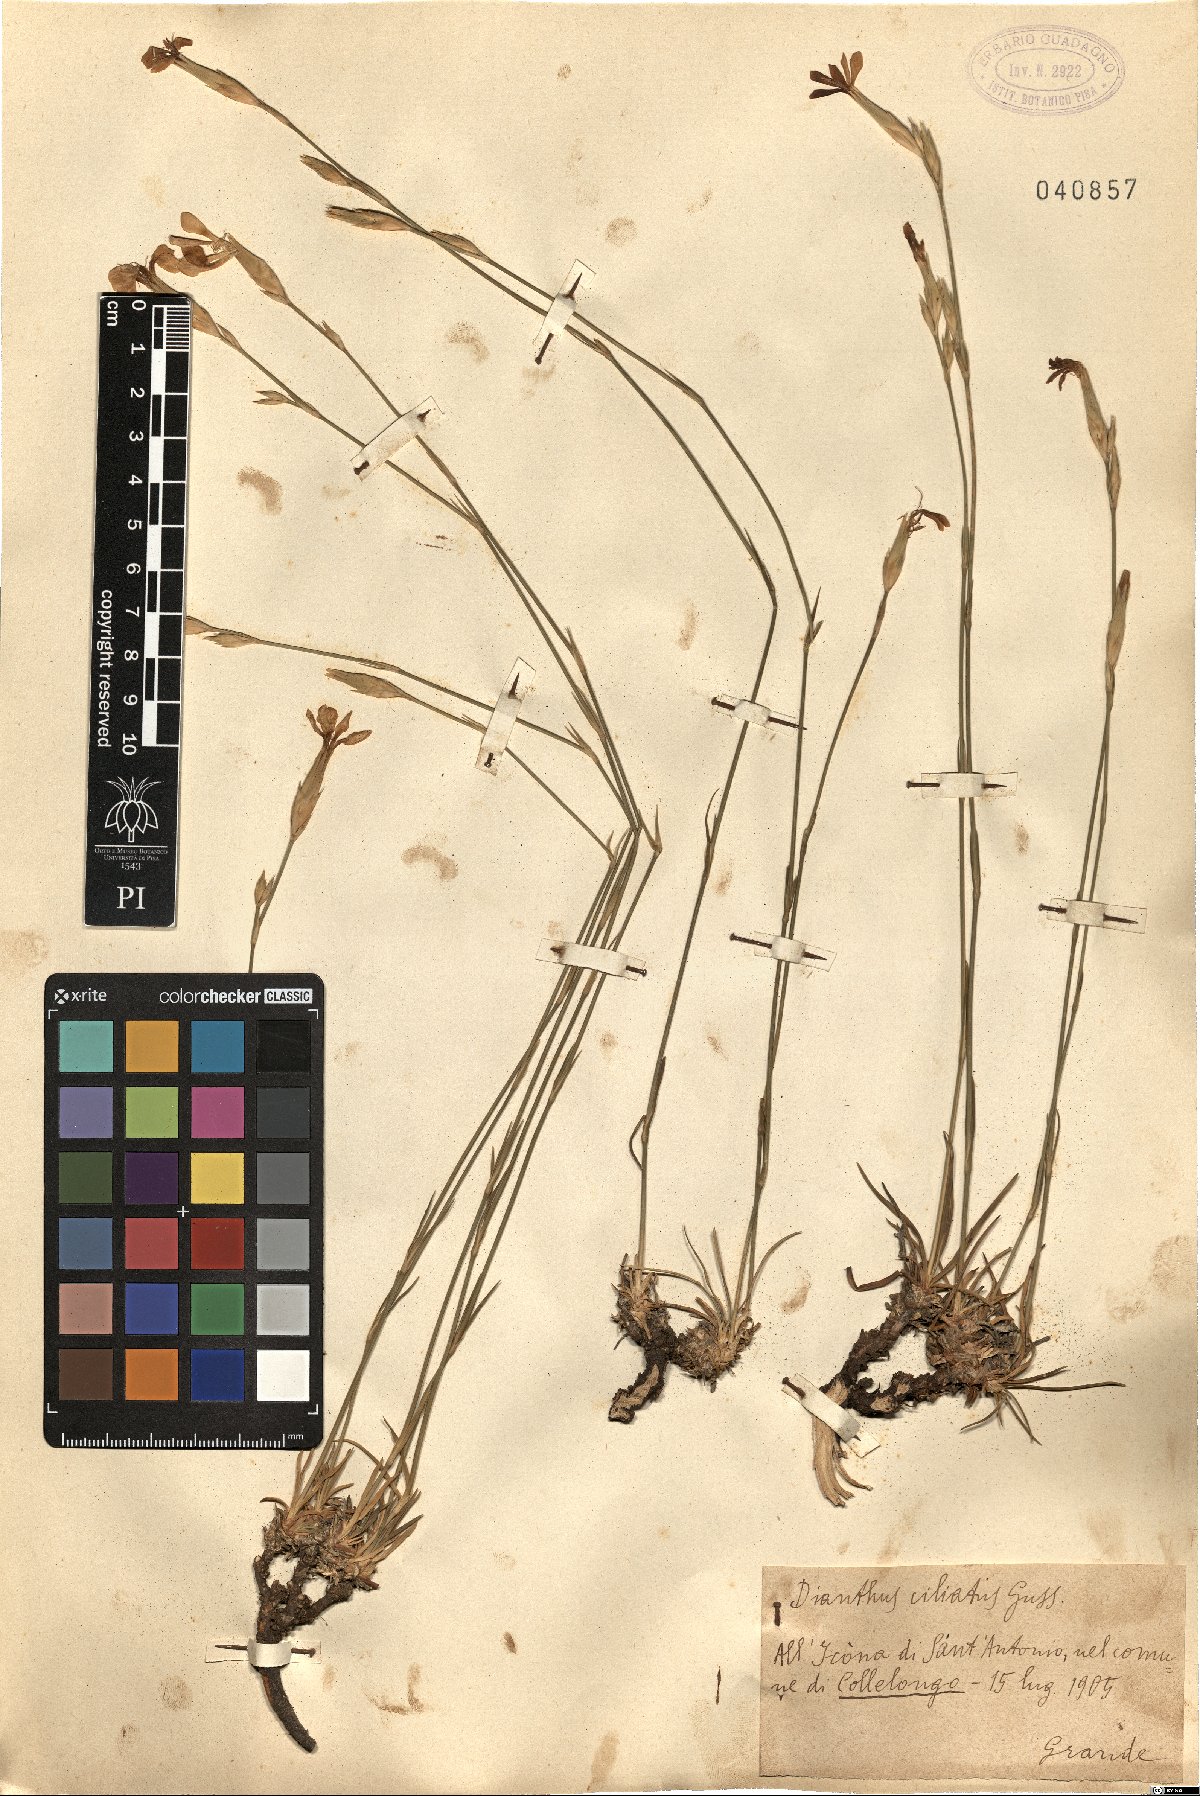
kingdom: Plantae
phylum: Tracheophyta
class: Magnoliopsida
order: Caryophyllales
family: Caryophyllaceae
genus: Dianthus
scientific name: Dianthus ciliatus
